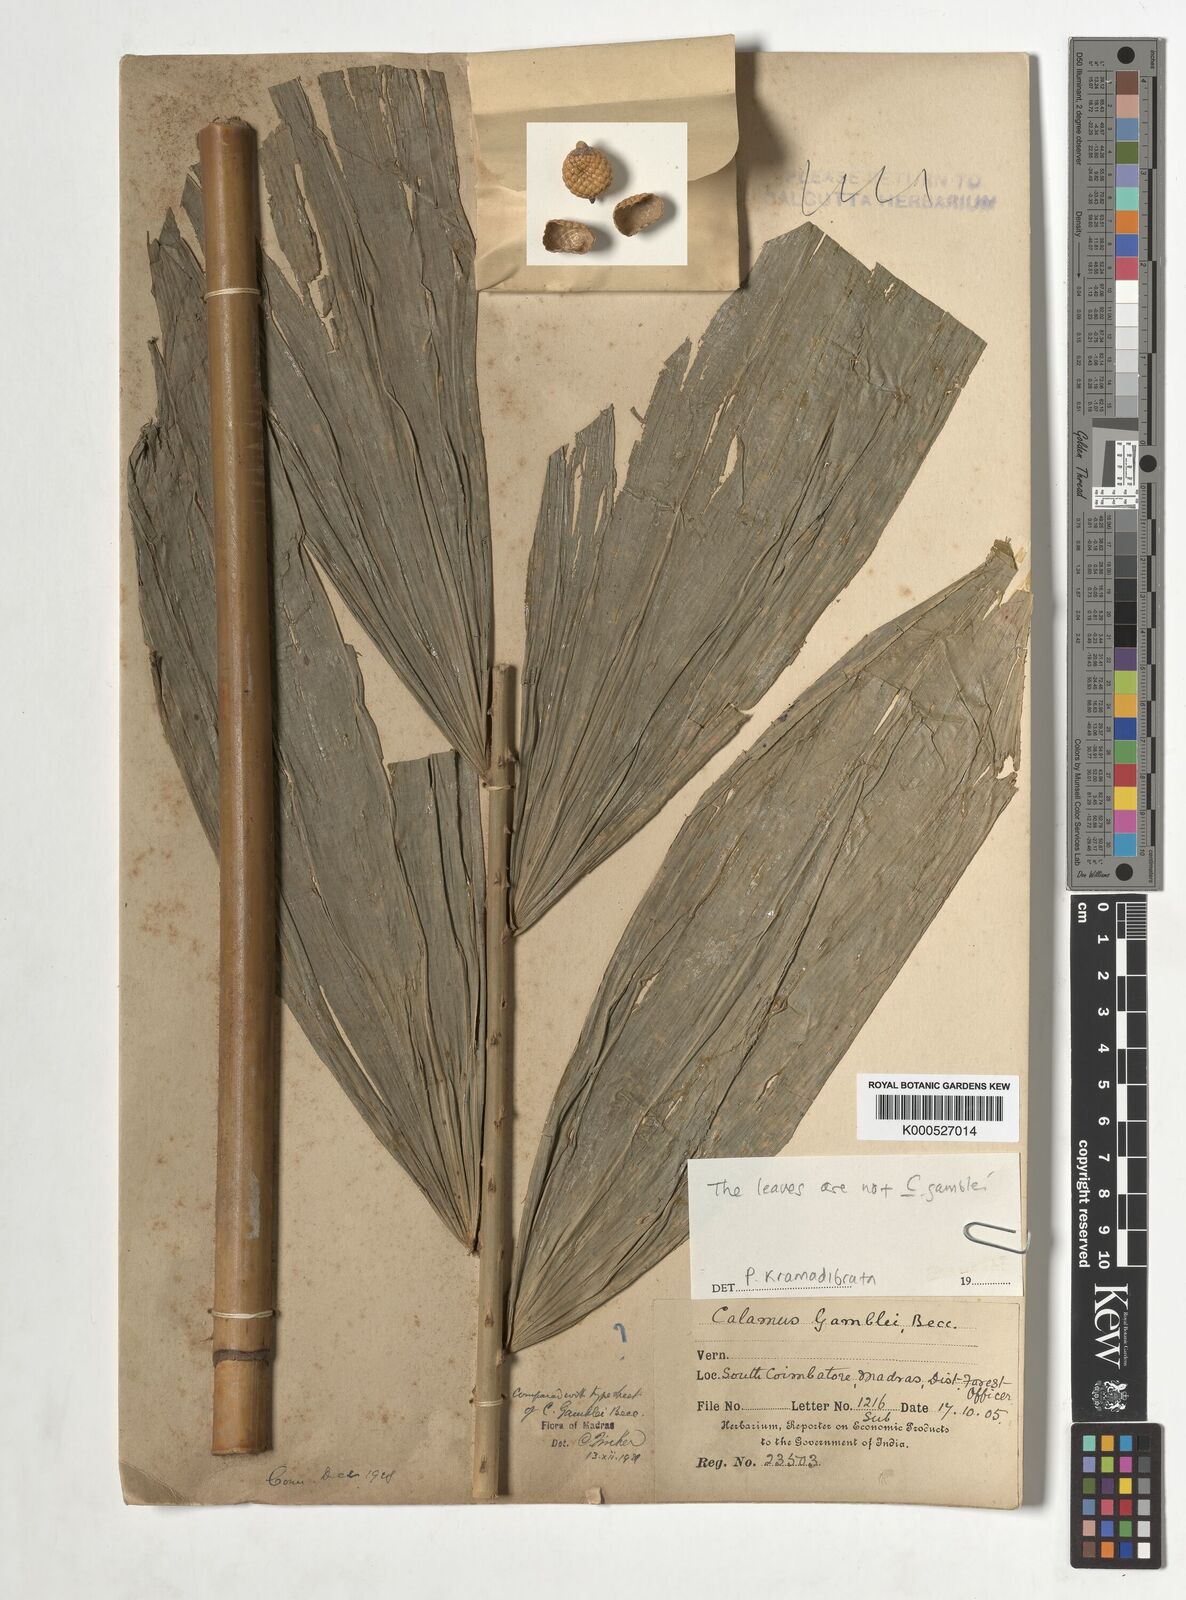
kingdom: Plantae
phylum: Tracheophyta
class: Liliopsida
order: Arecales
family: Arecaceae
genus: Calamus
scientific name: Calamus gamblei
